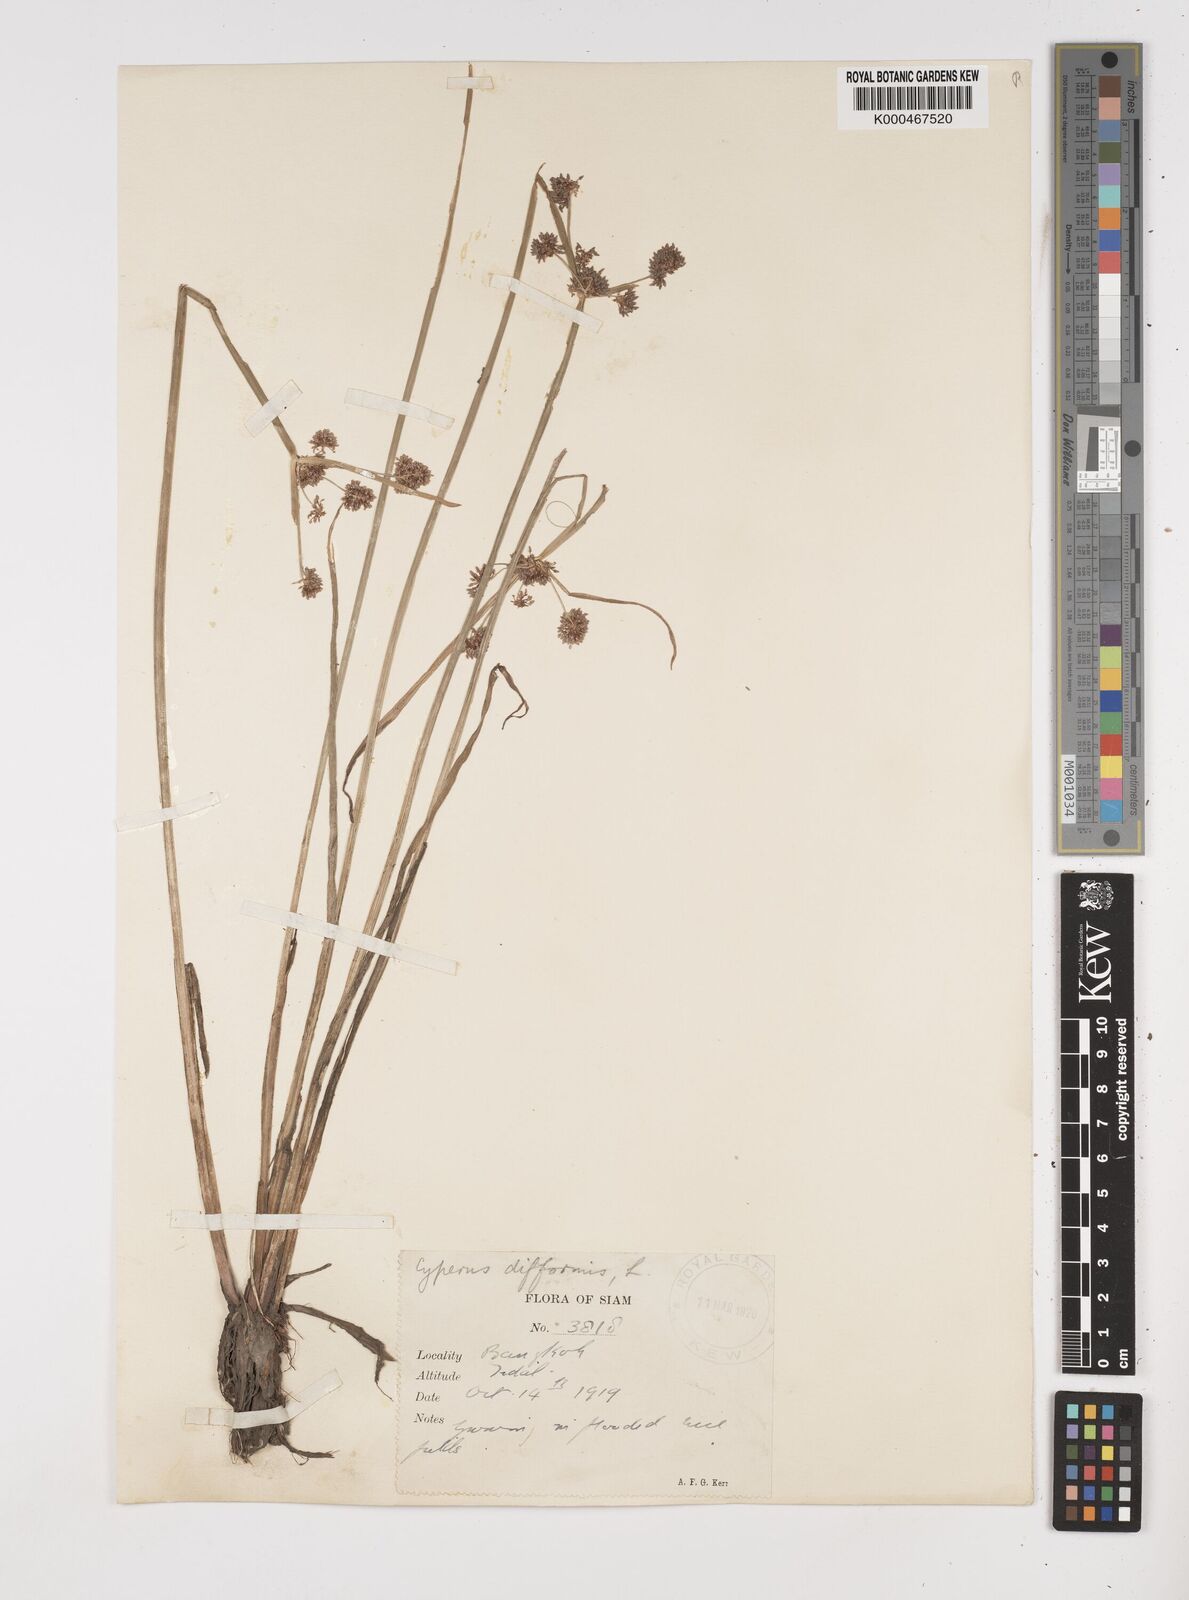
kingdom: Plantae
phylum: Tracheophyta
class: Liliopsida
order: Poales
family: Cyperaceae
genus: Cyperus
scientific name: Cyperus difformis
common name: Variable flatsedge
